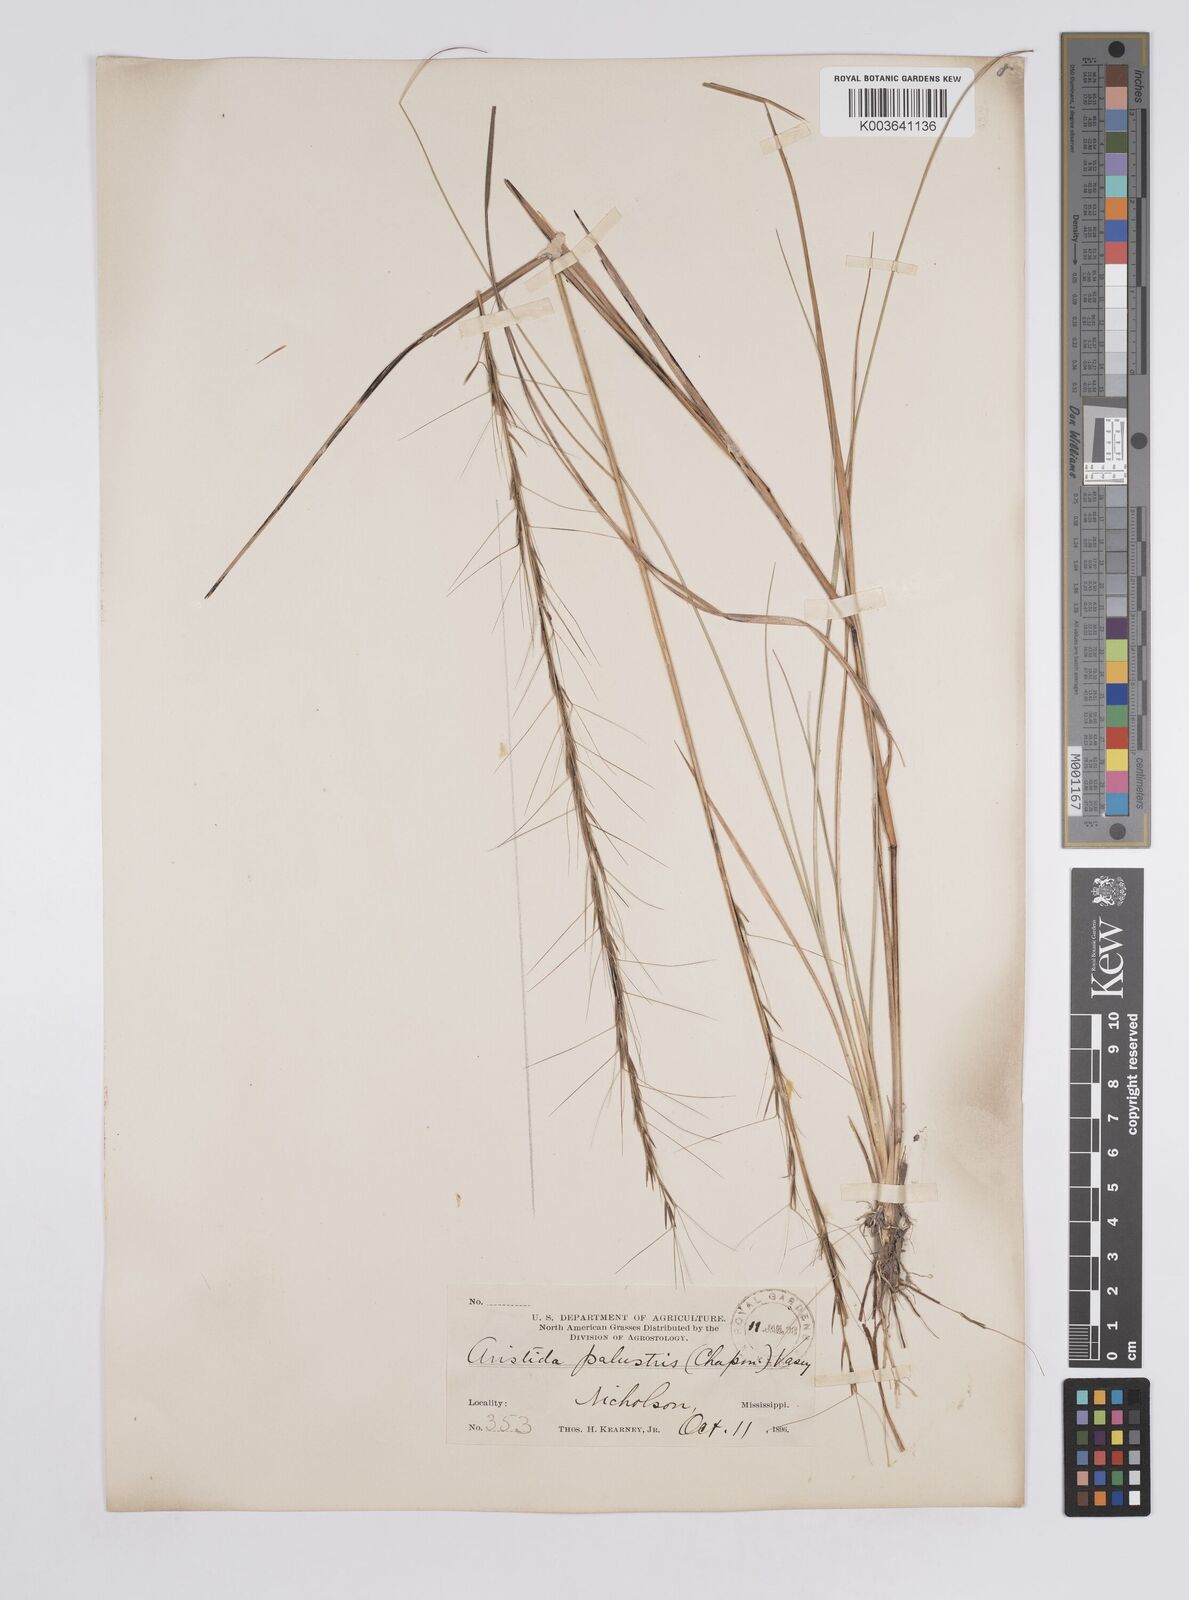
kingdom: Plantae
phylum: Tracheophyta
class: Liliopsida
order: Poales
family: Poaceae
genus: Aristida
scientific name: Aristida palustris
